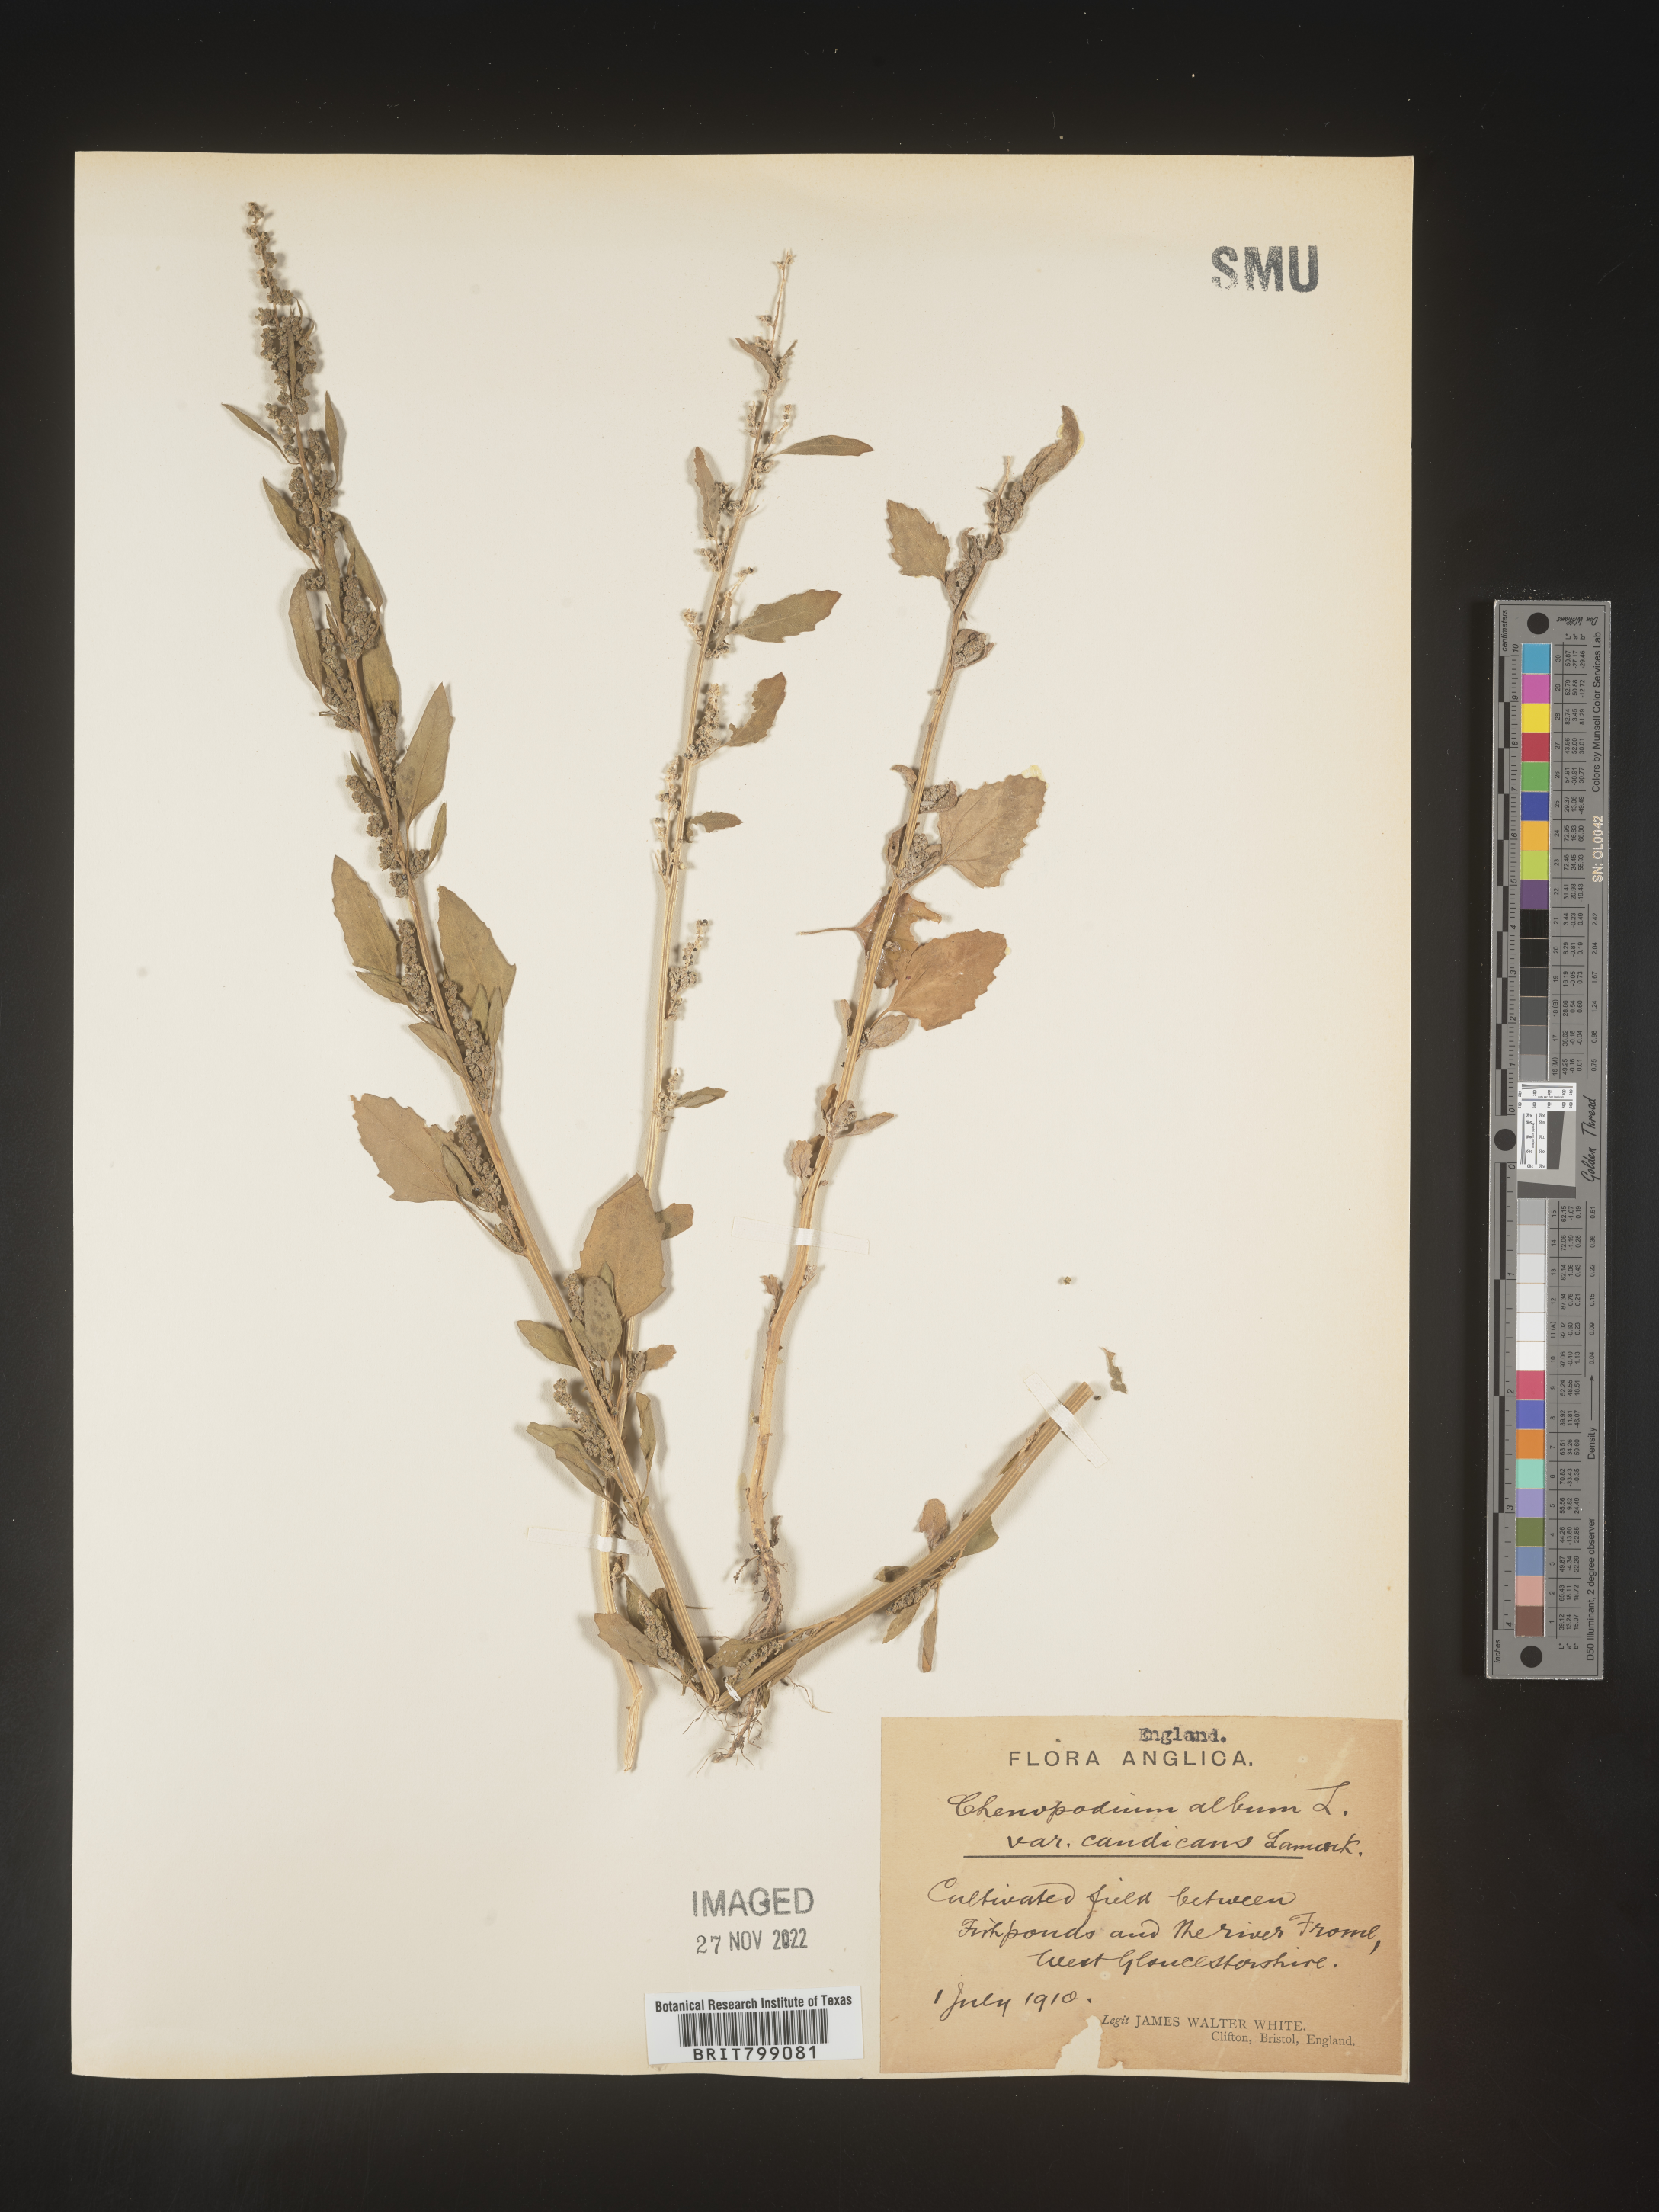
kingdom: Plantae
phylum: Tracheophyta
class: Magnoliopsida
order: Caryophyllales
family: Amaranthaceae
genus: Chenopodium
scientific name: Chenopodium
